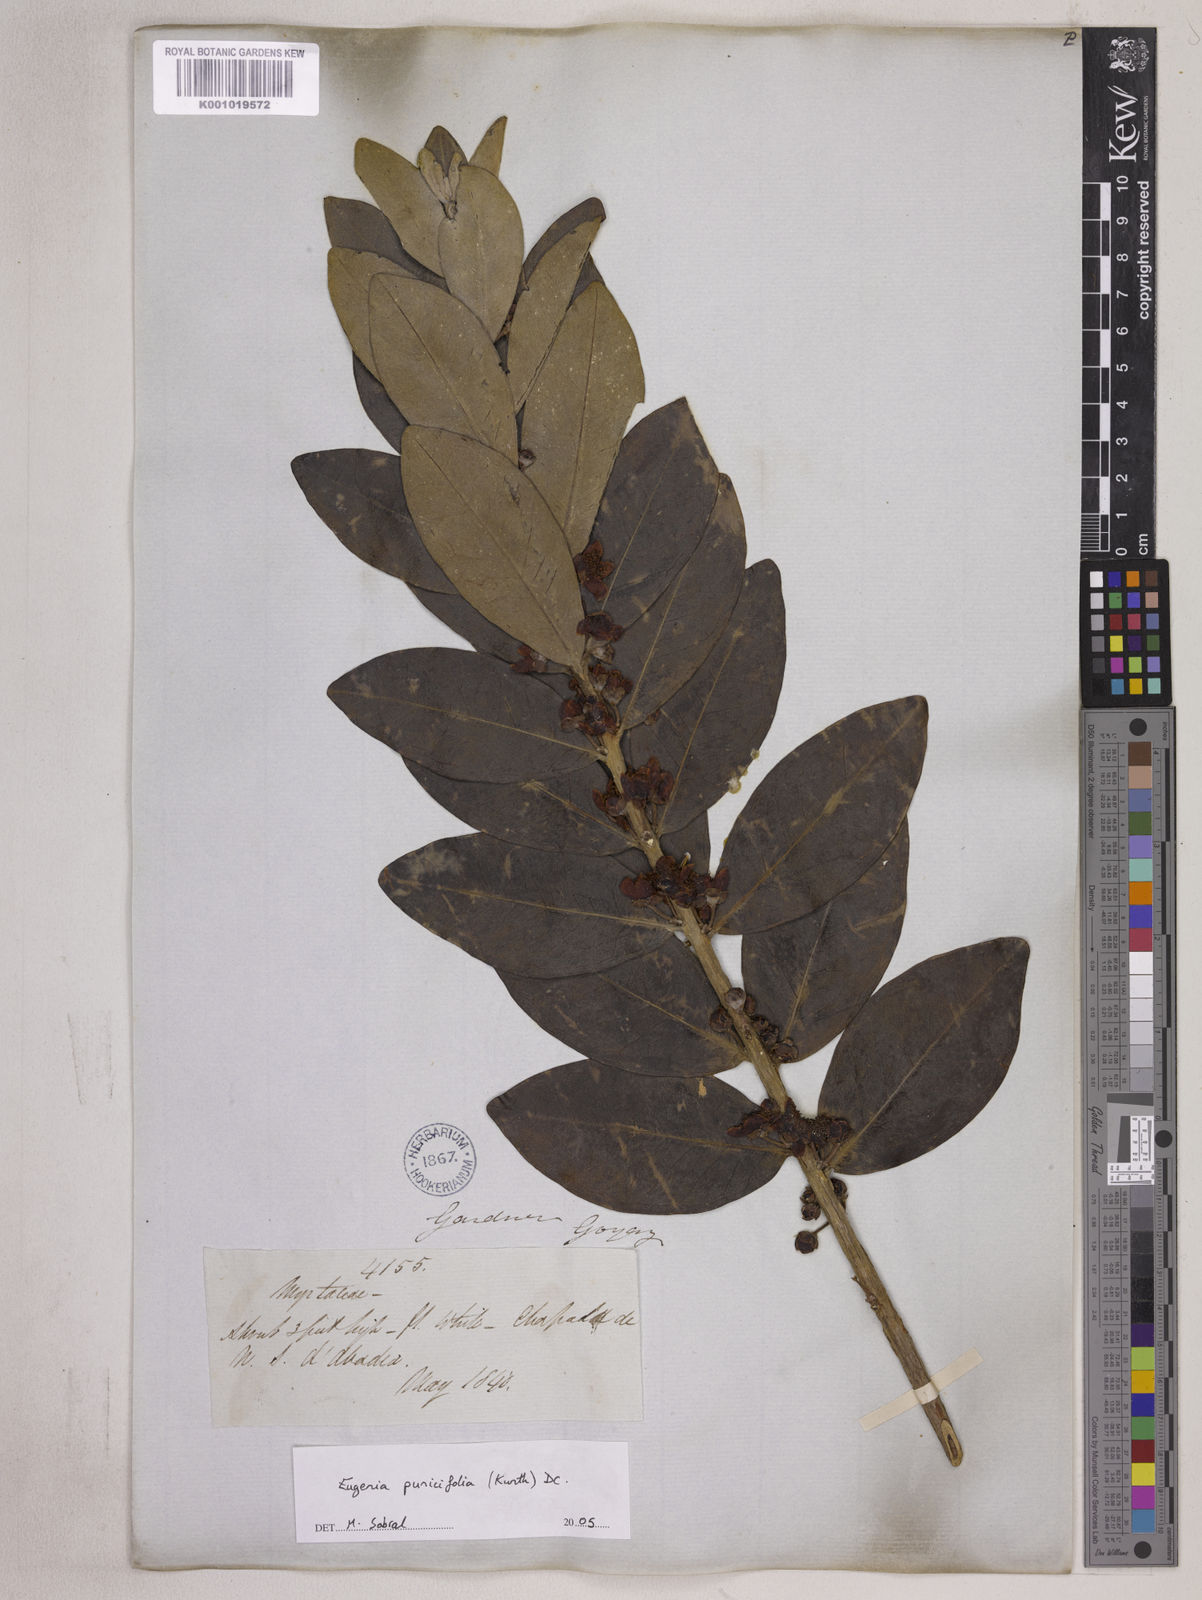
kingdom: Plantae
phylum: Tracheophyta
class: Magnoliopsida
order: Myrtales
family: Myrtaceae
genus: Eugenia
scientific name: Eugenia punicifolia
